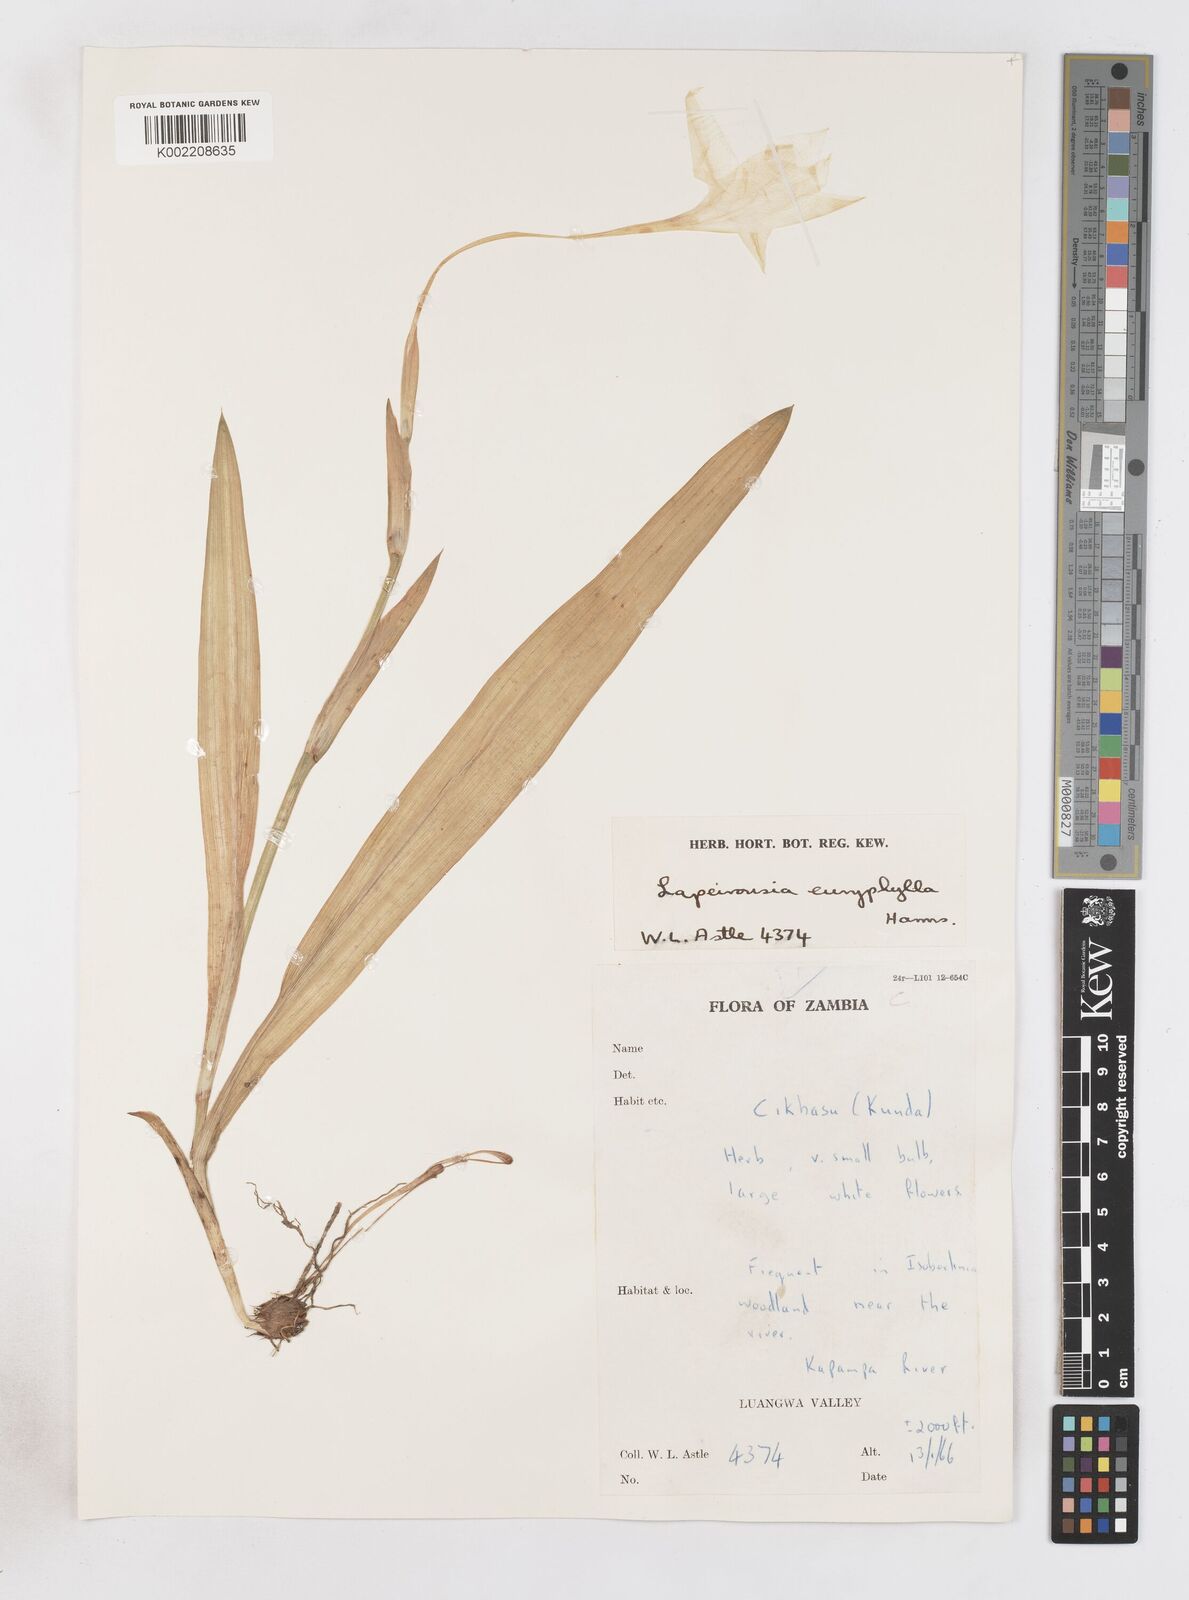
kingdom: Plantae
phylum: Tracheophyta
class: Liliopsida
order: Asparagales
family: Iridaceae
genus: Savannosiphon
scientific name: Savannosiphon euryphylla
